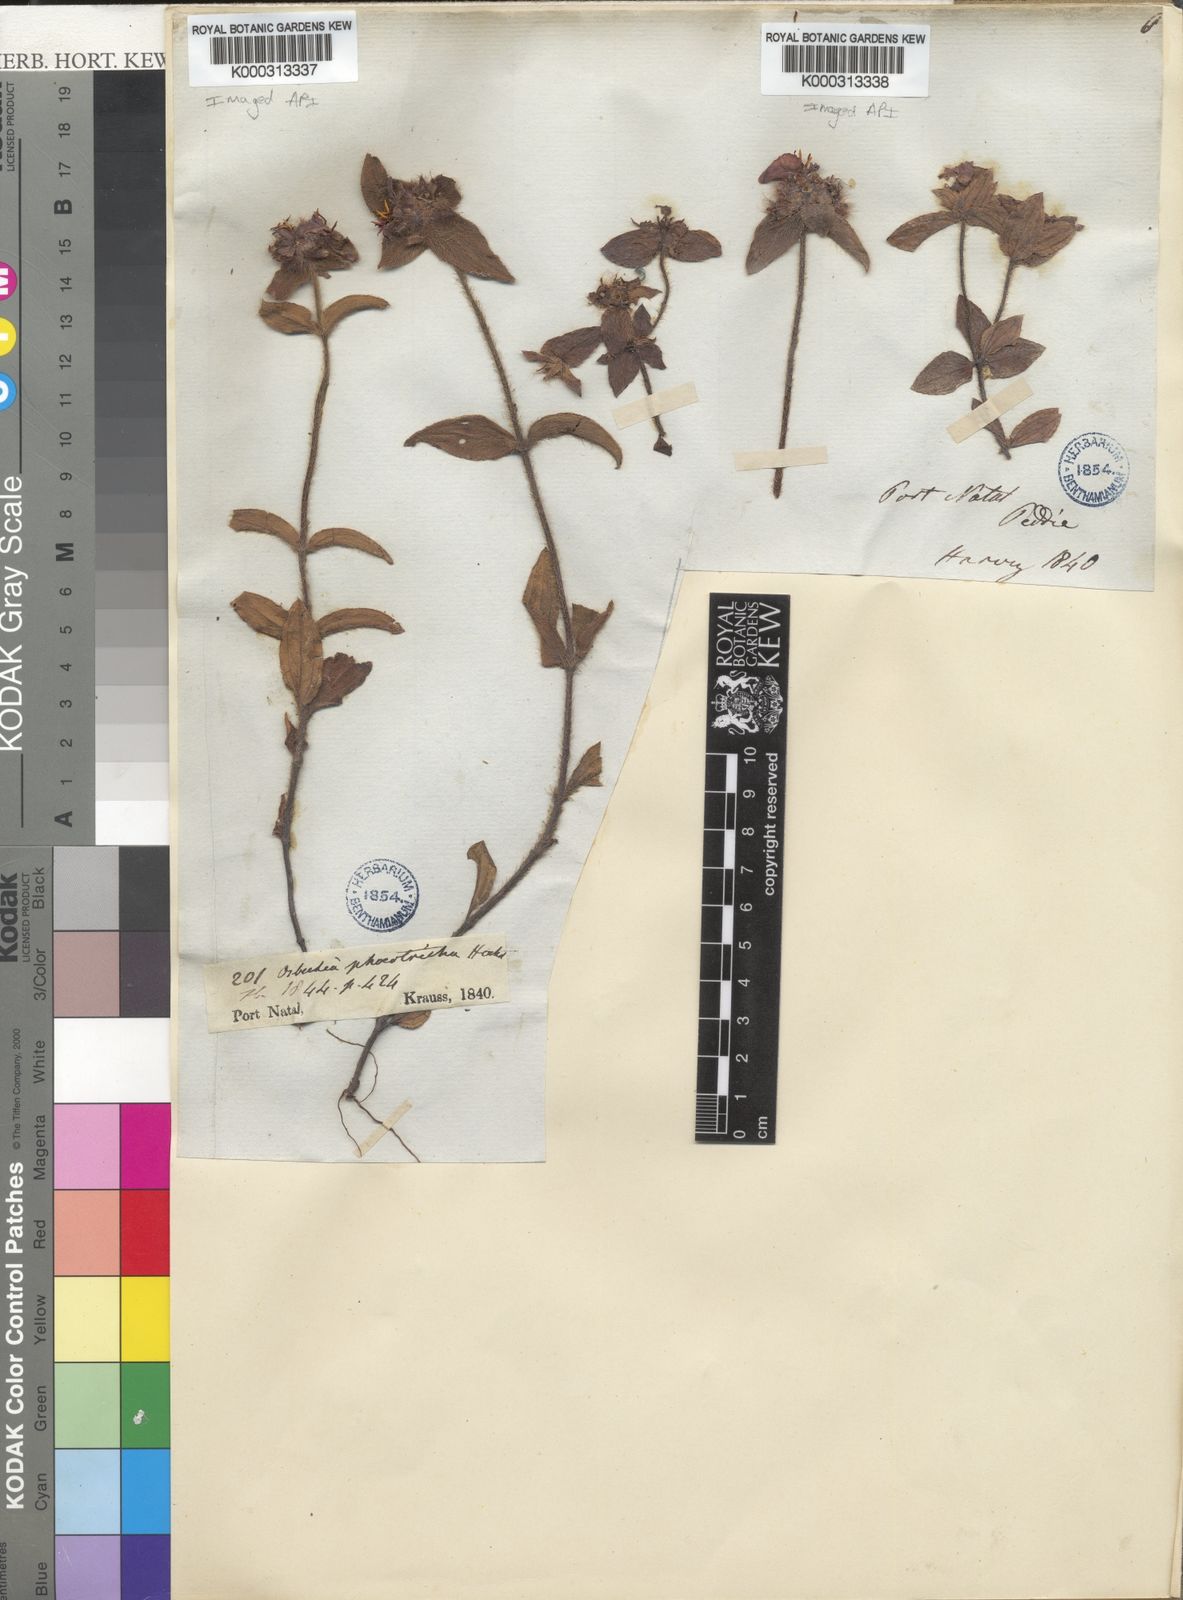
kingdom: Plantae
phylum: Tracheophyta
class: Magnoliopsida
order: Myrtales
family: Melastomataceae
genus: Antherotoma
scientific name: Antherotoma phaeotricha
